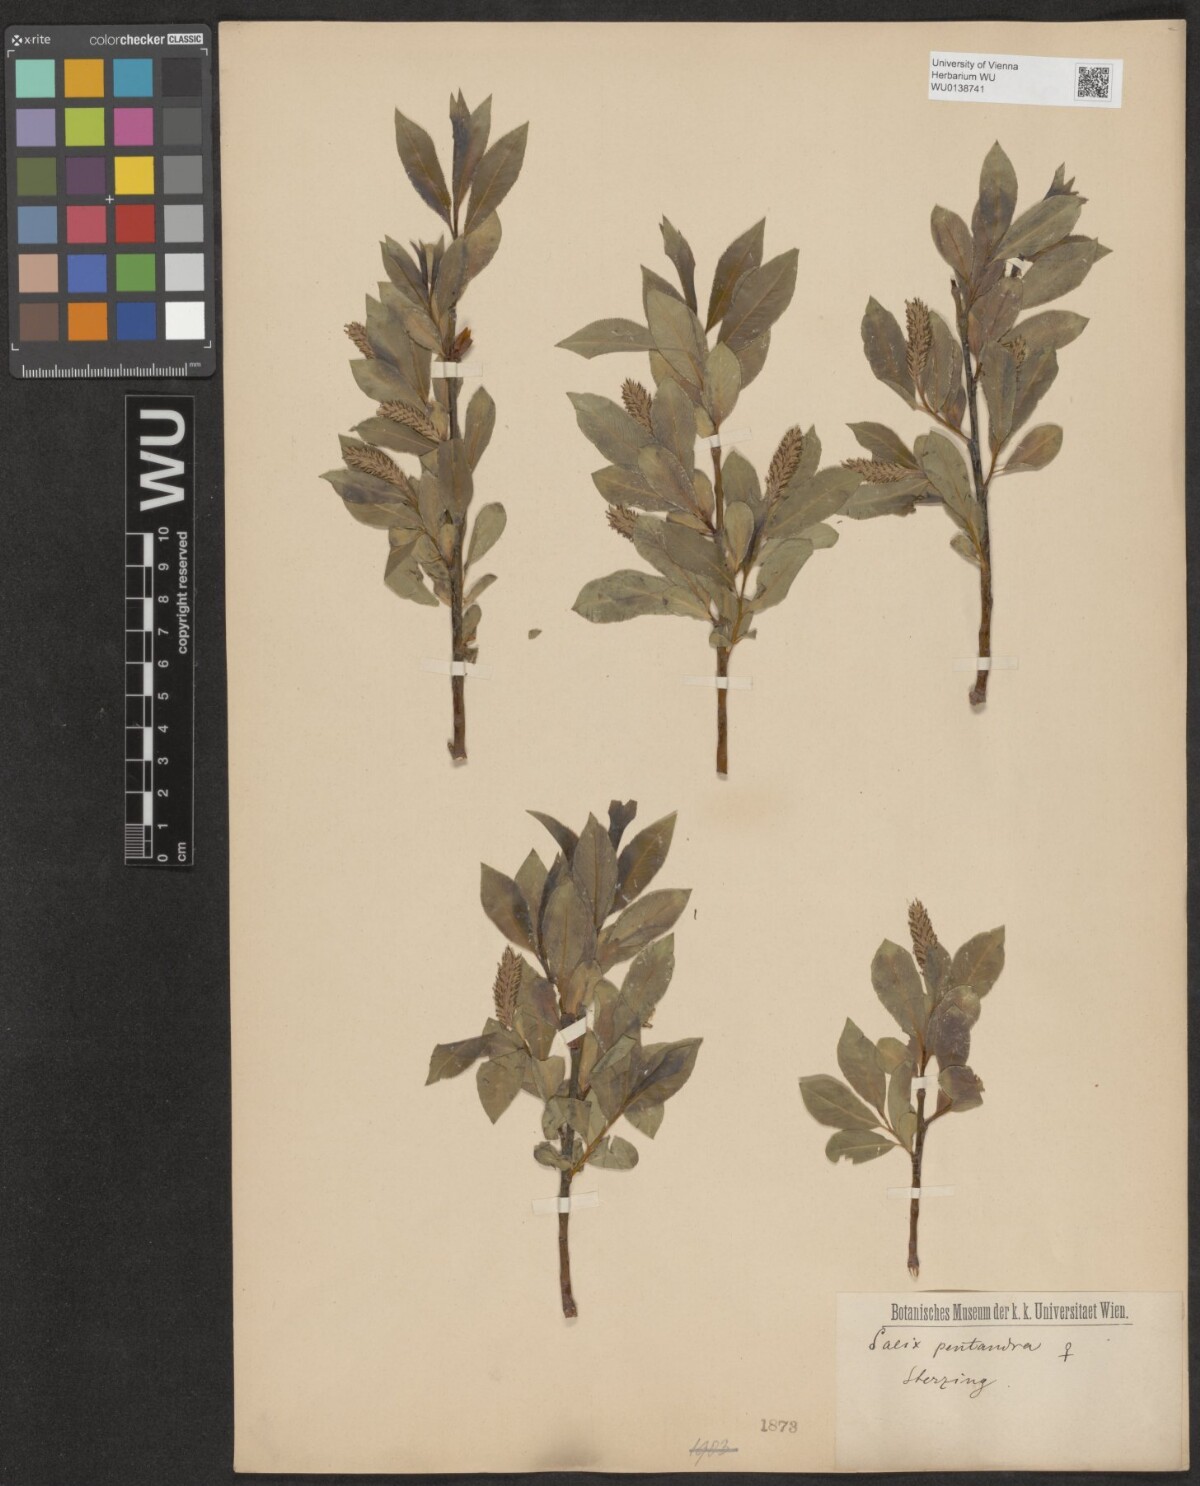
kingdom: Plantae
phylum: Tracheophyta
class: Magnoliopsida
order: Malpighiales
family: Salicaceae
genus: Salix
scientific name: Salix pentandra
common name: Bay willow
